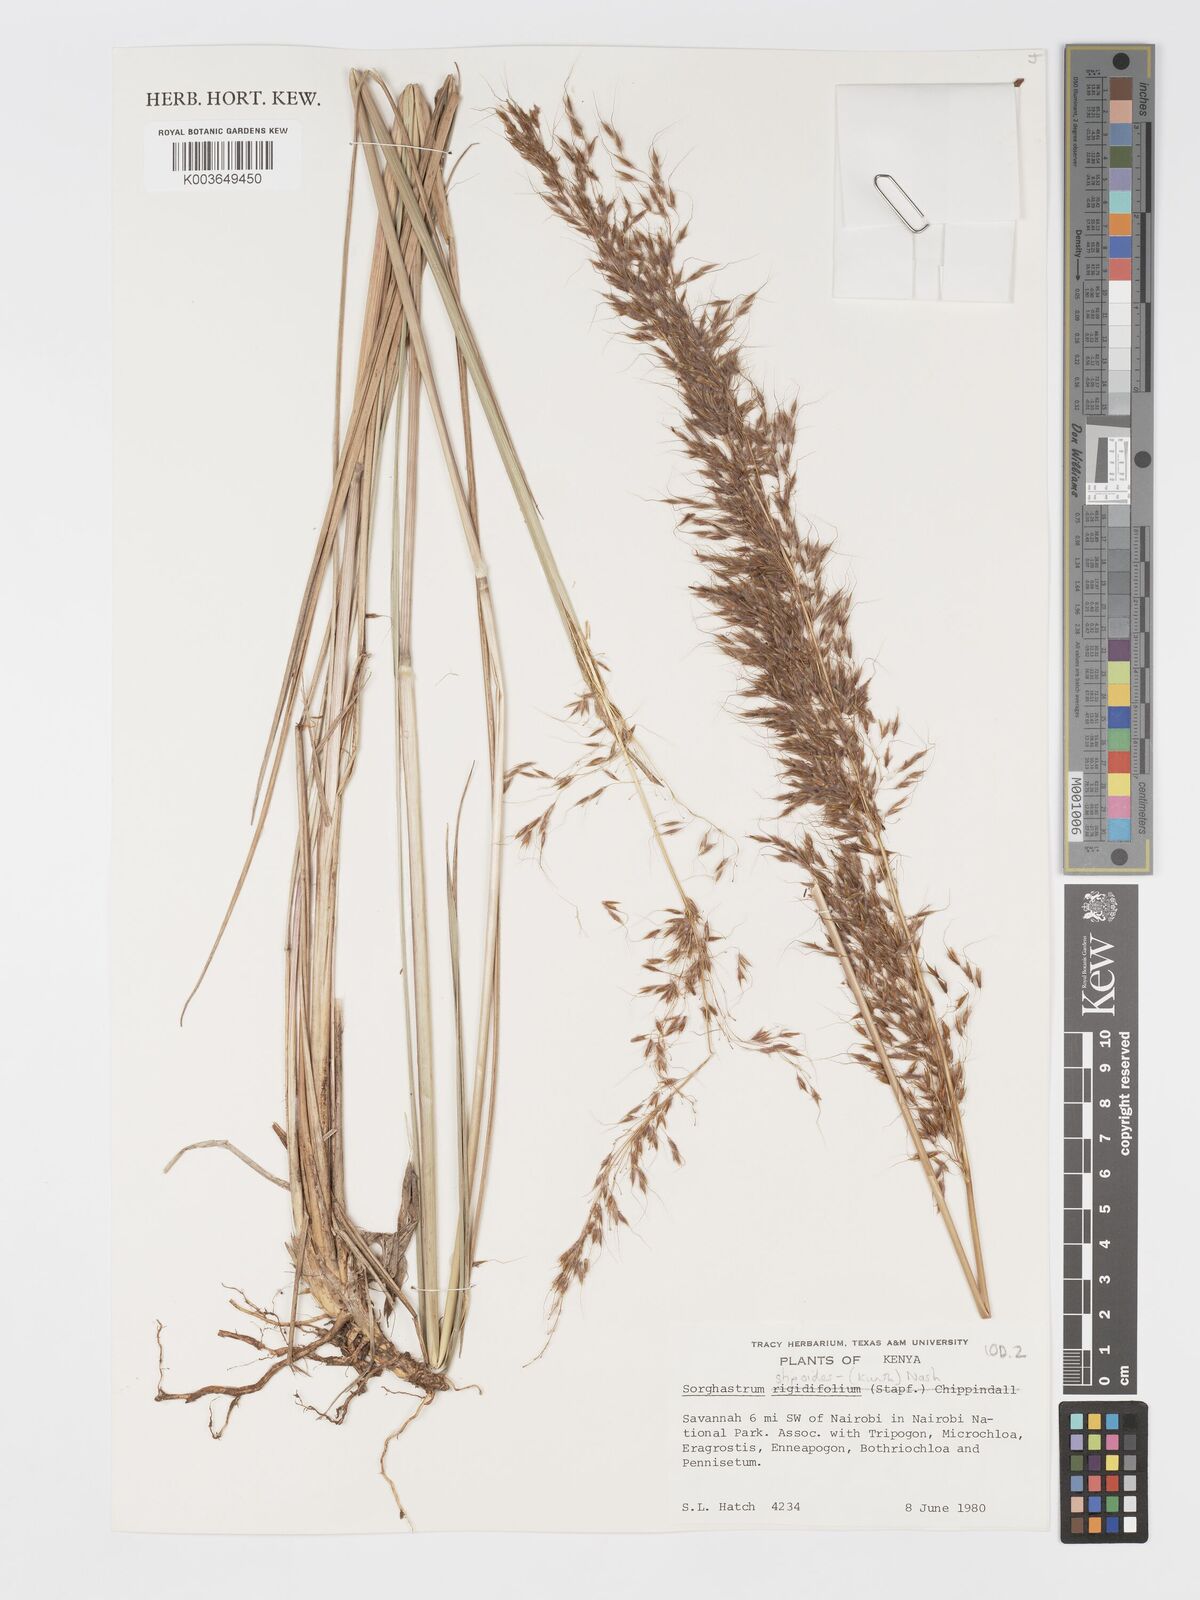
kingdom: Plantae
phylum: Tracheophyta
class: Liliopsida
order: Poales
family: Poaceae
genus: Sorghastrum
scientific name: Sorghastrum stipoides
